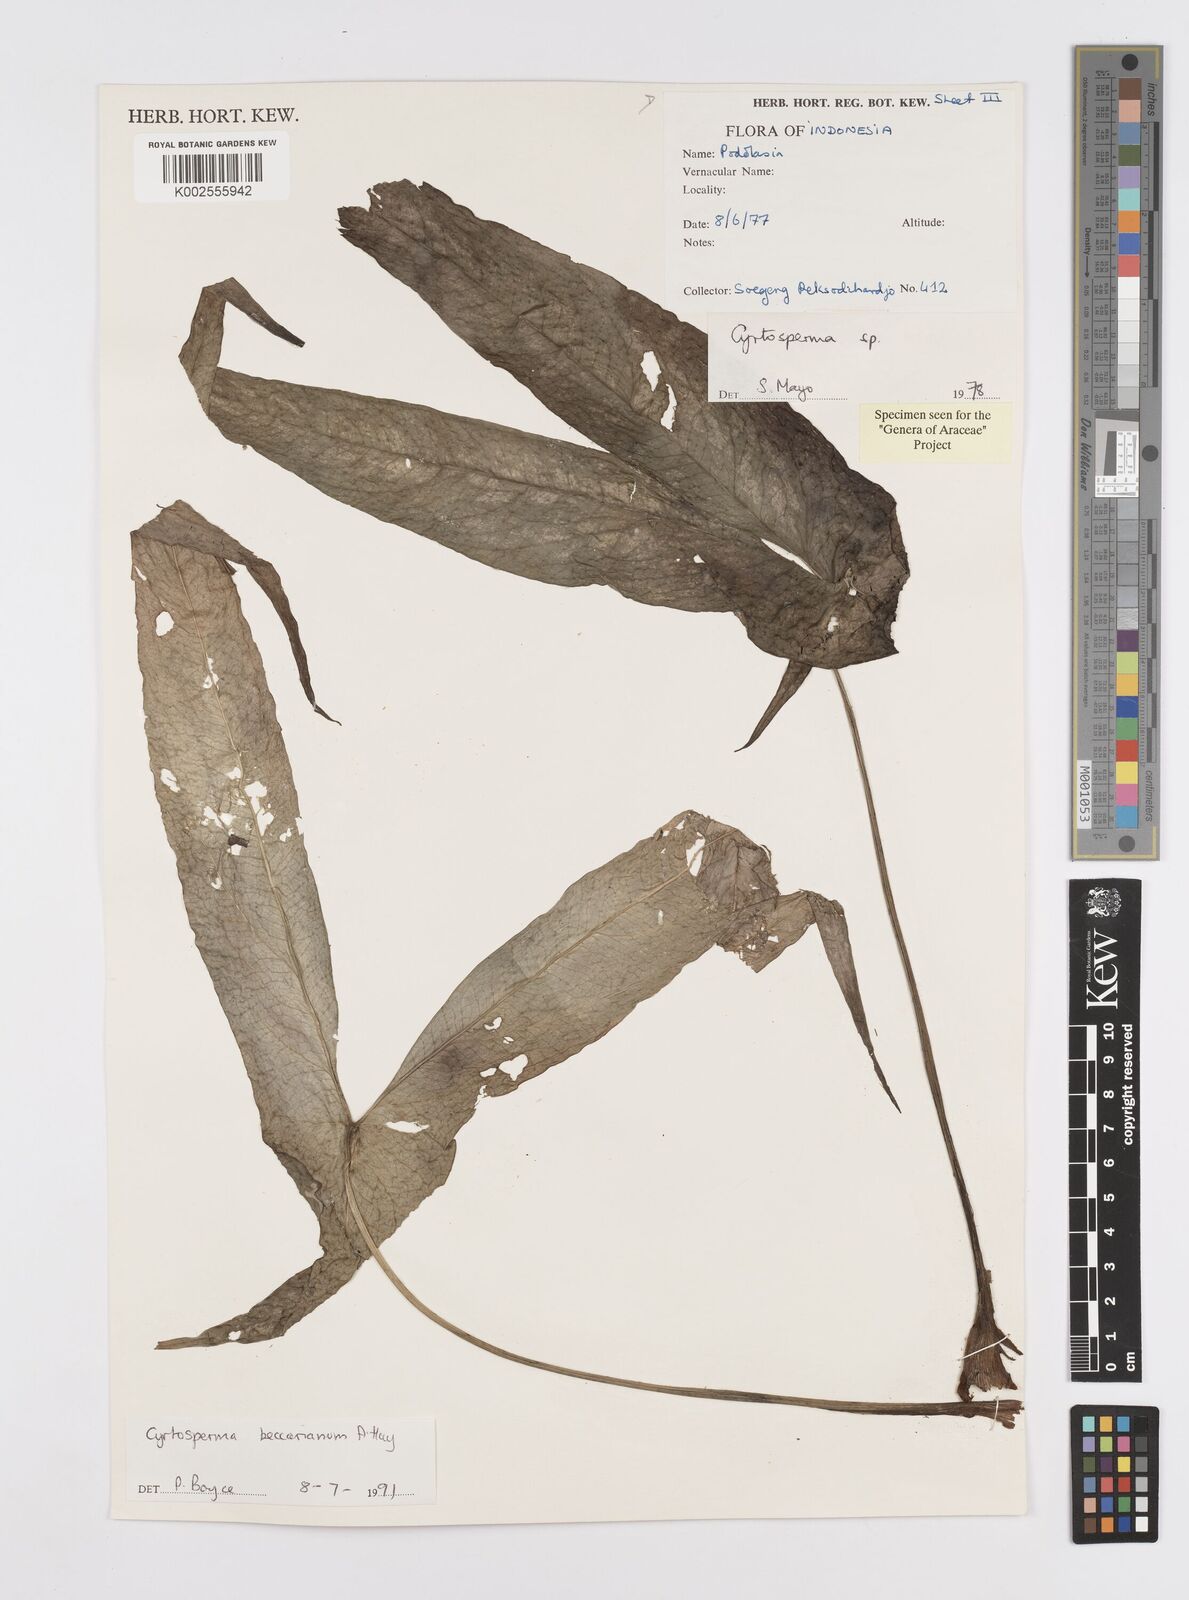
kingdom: Plantae
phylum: Tracheophyta
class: Liliopsida
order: Alismatales
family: Araceae
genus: Cyrtosperma
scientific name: Cyrtosperma beccarianum
